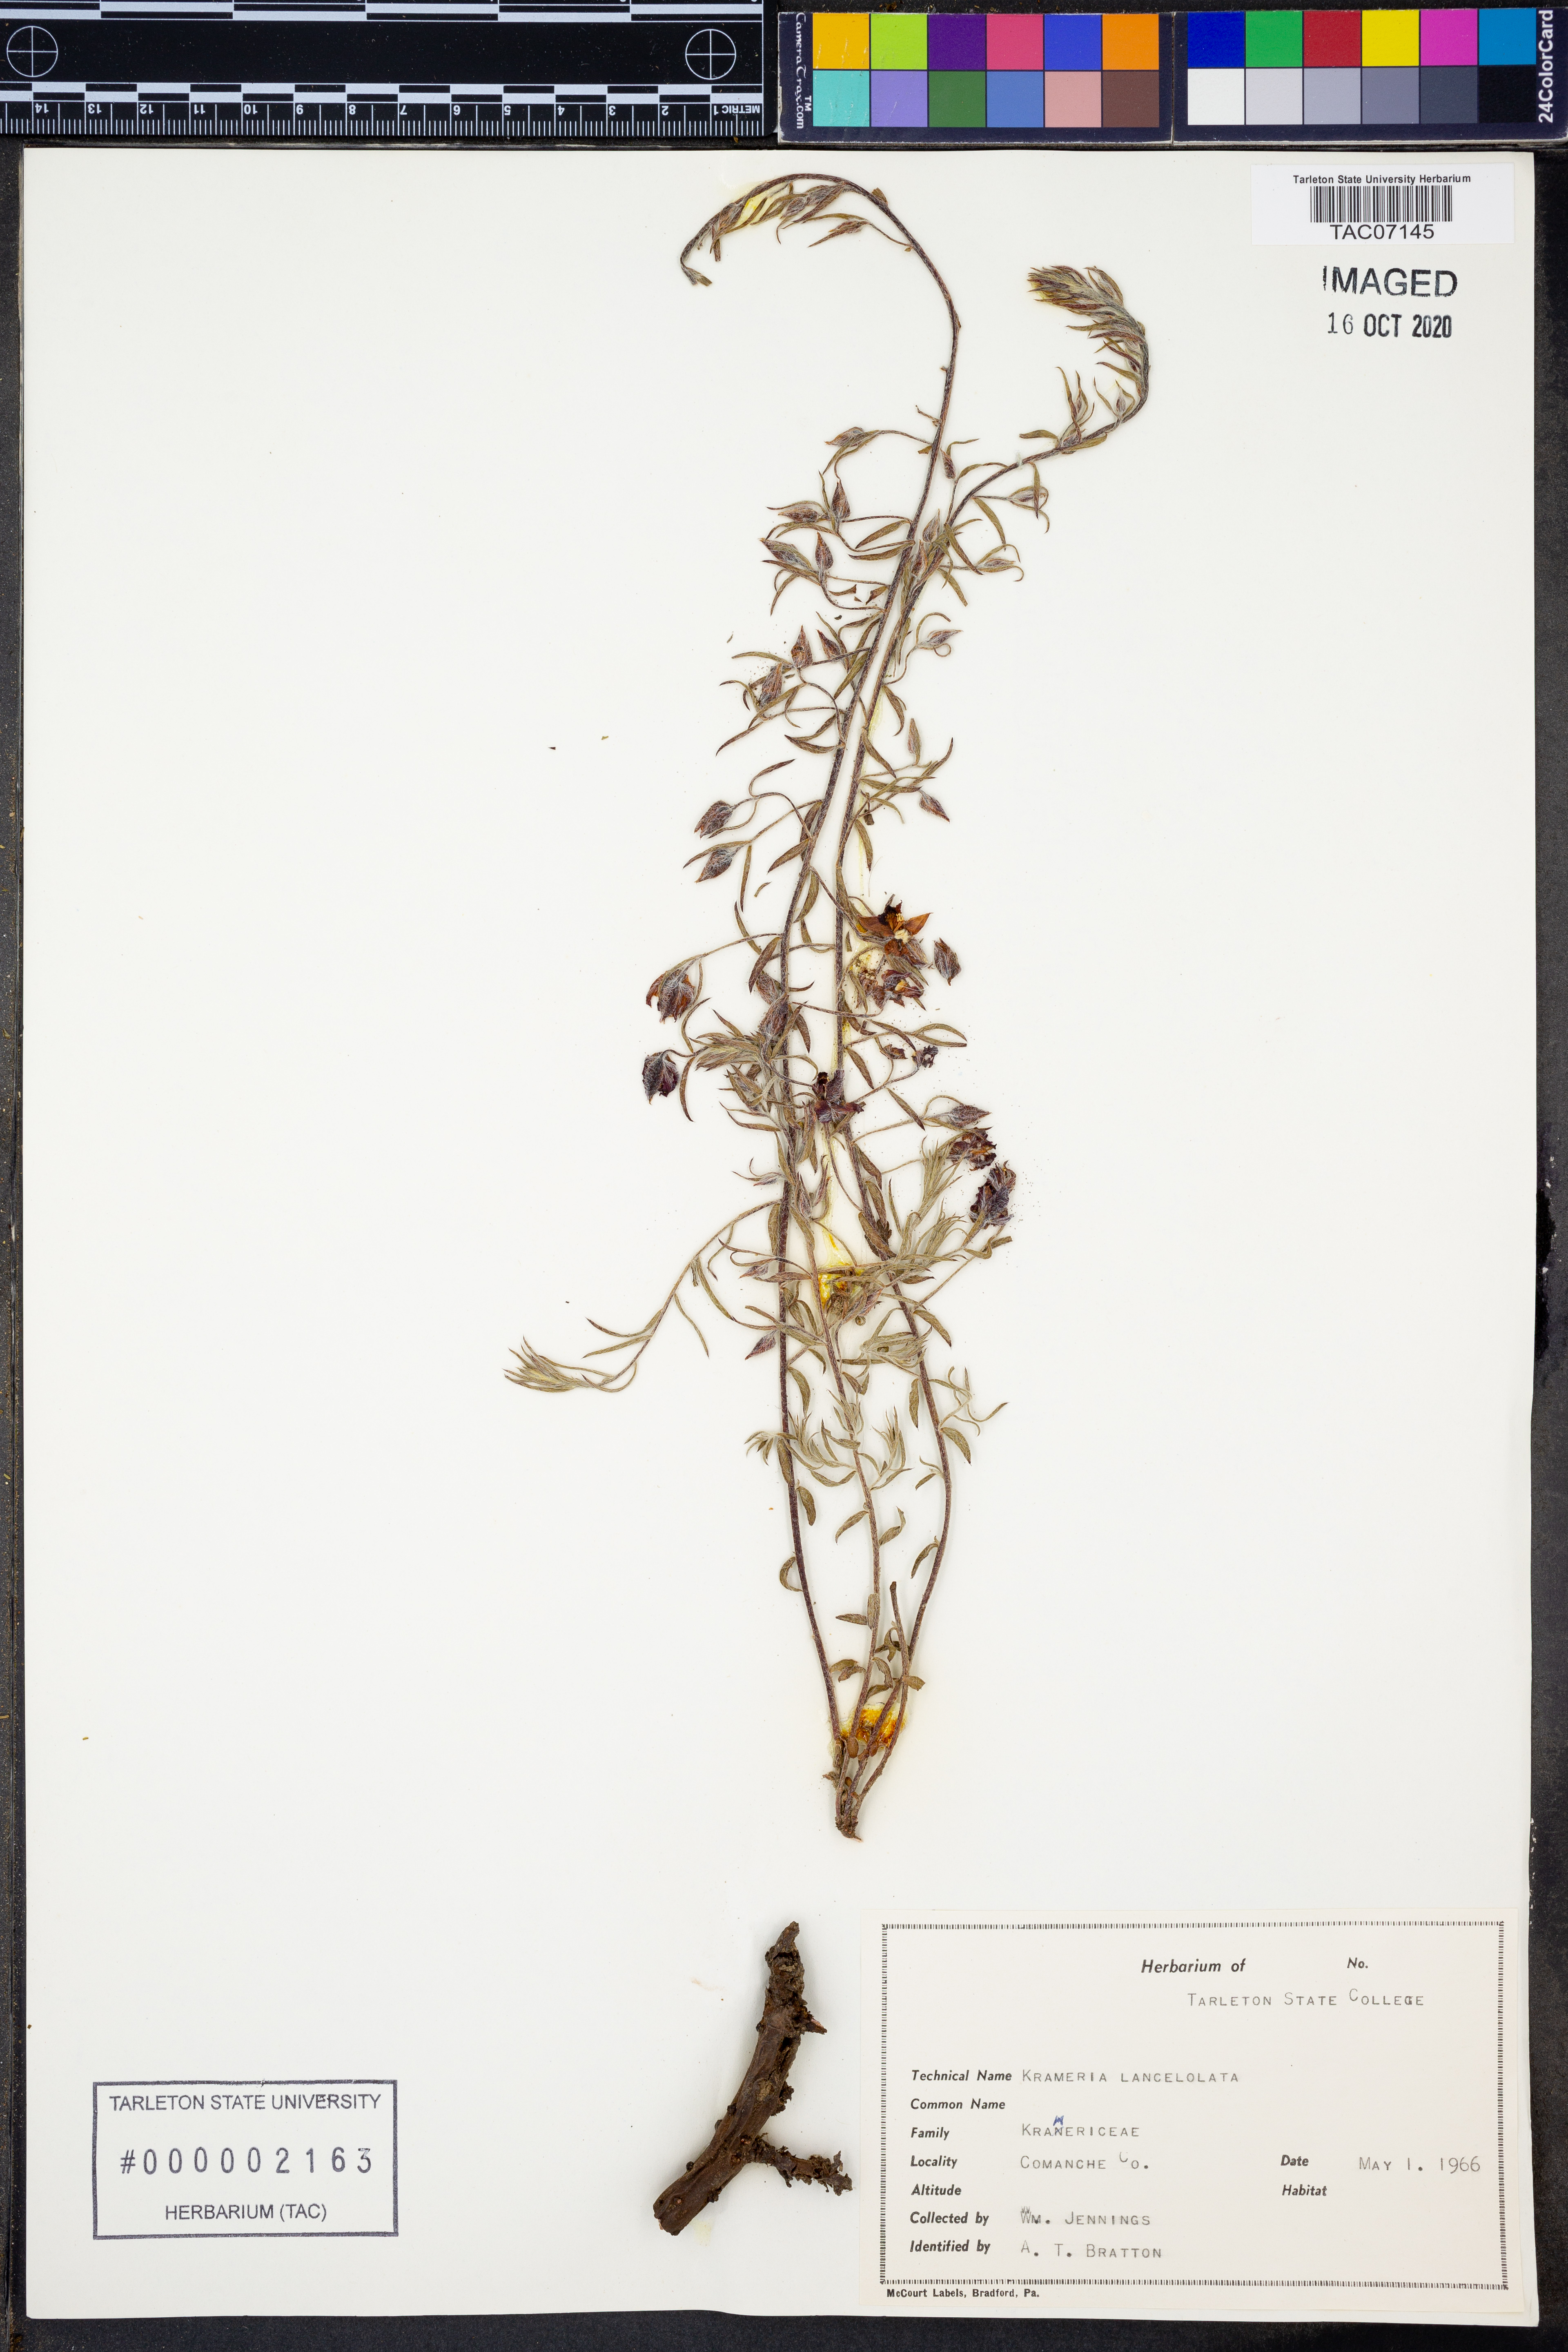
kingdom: Plantae
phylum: Tracheophyta
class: Magnoliopsida
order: Zygophyllales
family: Krameriaceae
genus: Krameria
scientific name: Krameria lanceolata
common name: Ratany
